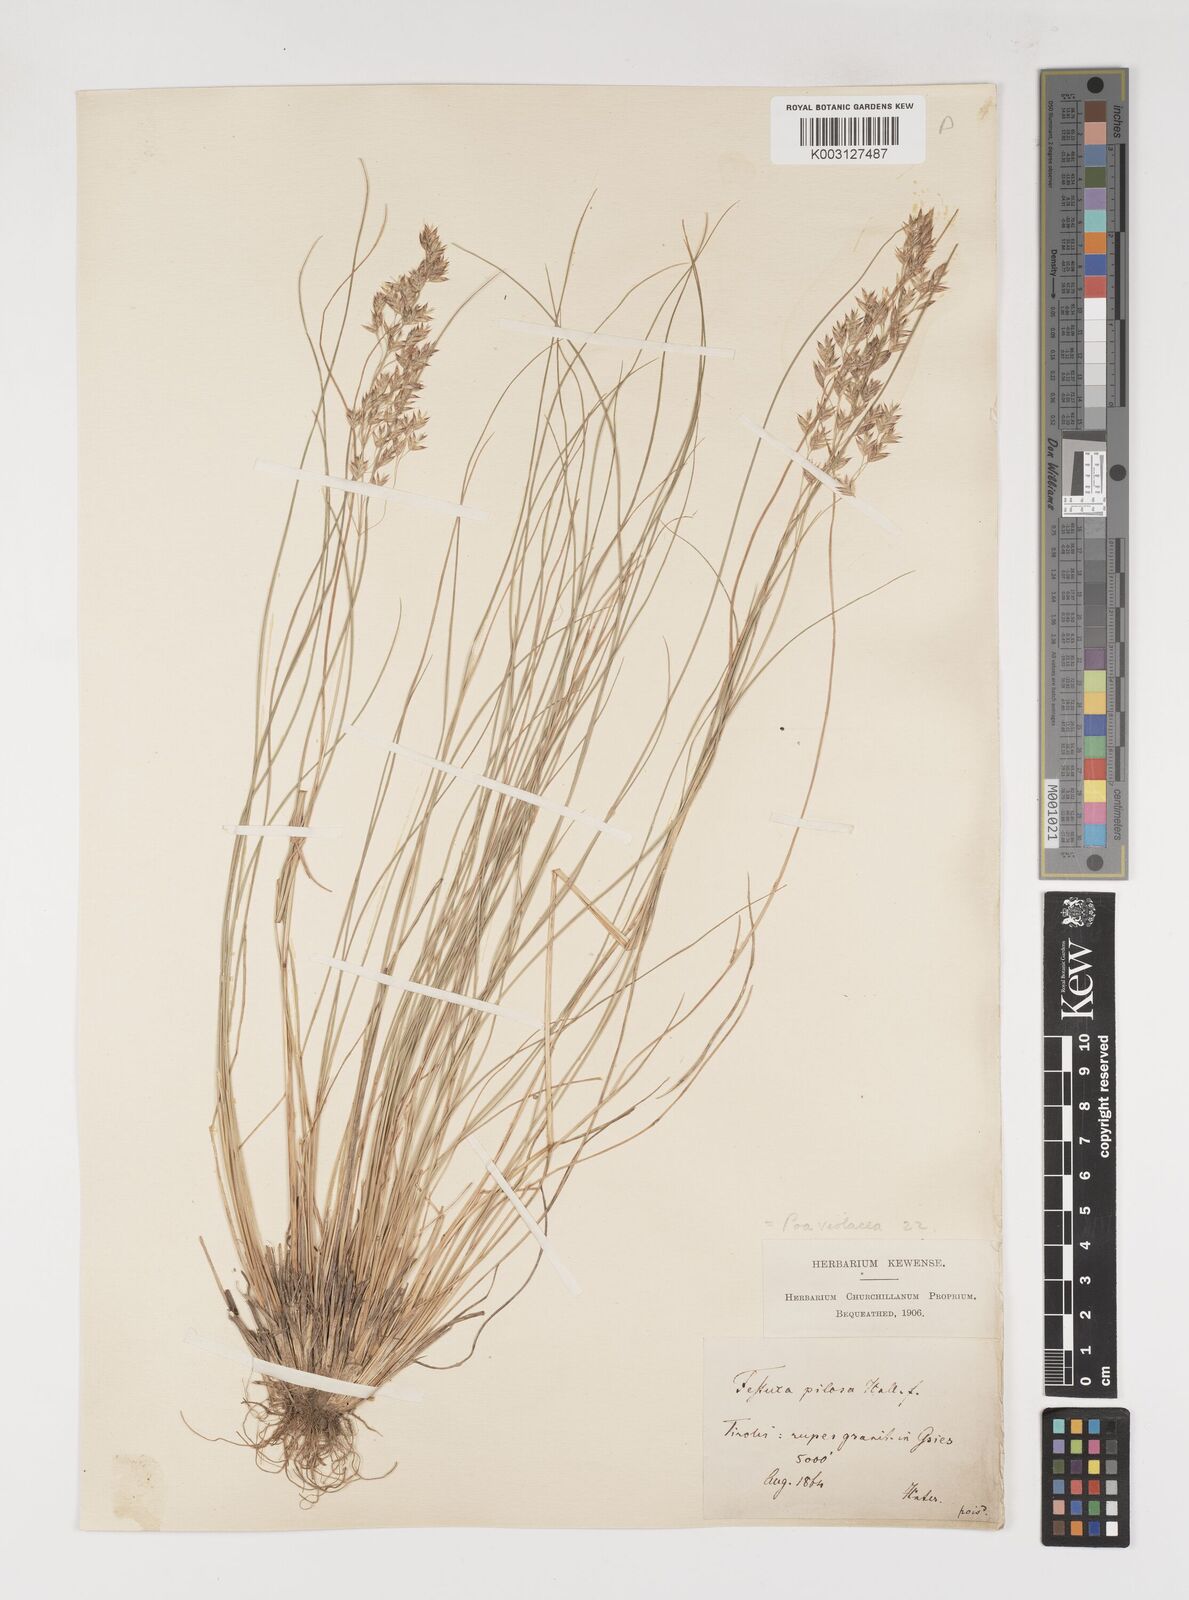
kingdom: Plantae
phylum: Tracheophyta
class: Liliopsida
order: Poales
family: Poaceae
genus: Bellardiochloa
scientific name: Bellardiochloa variegata
